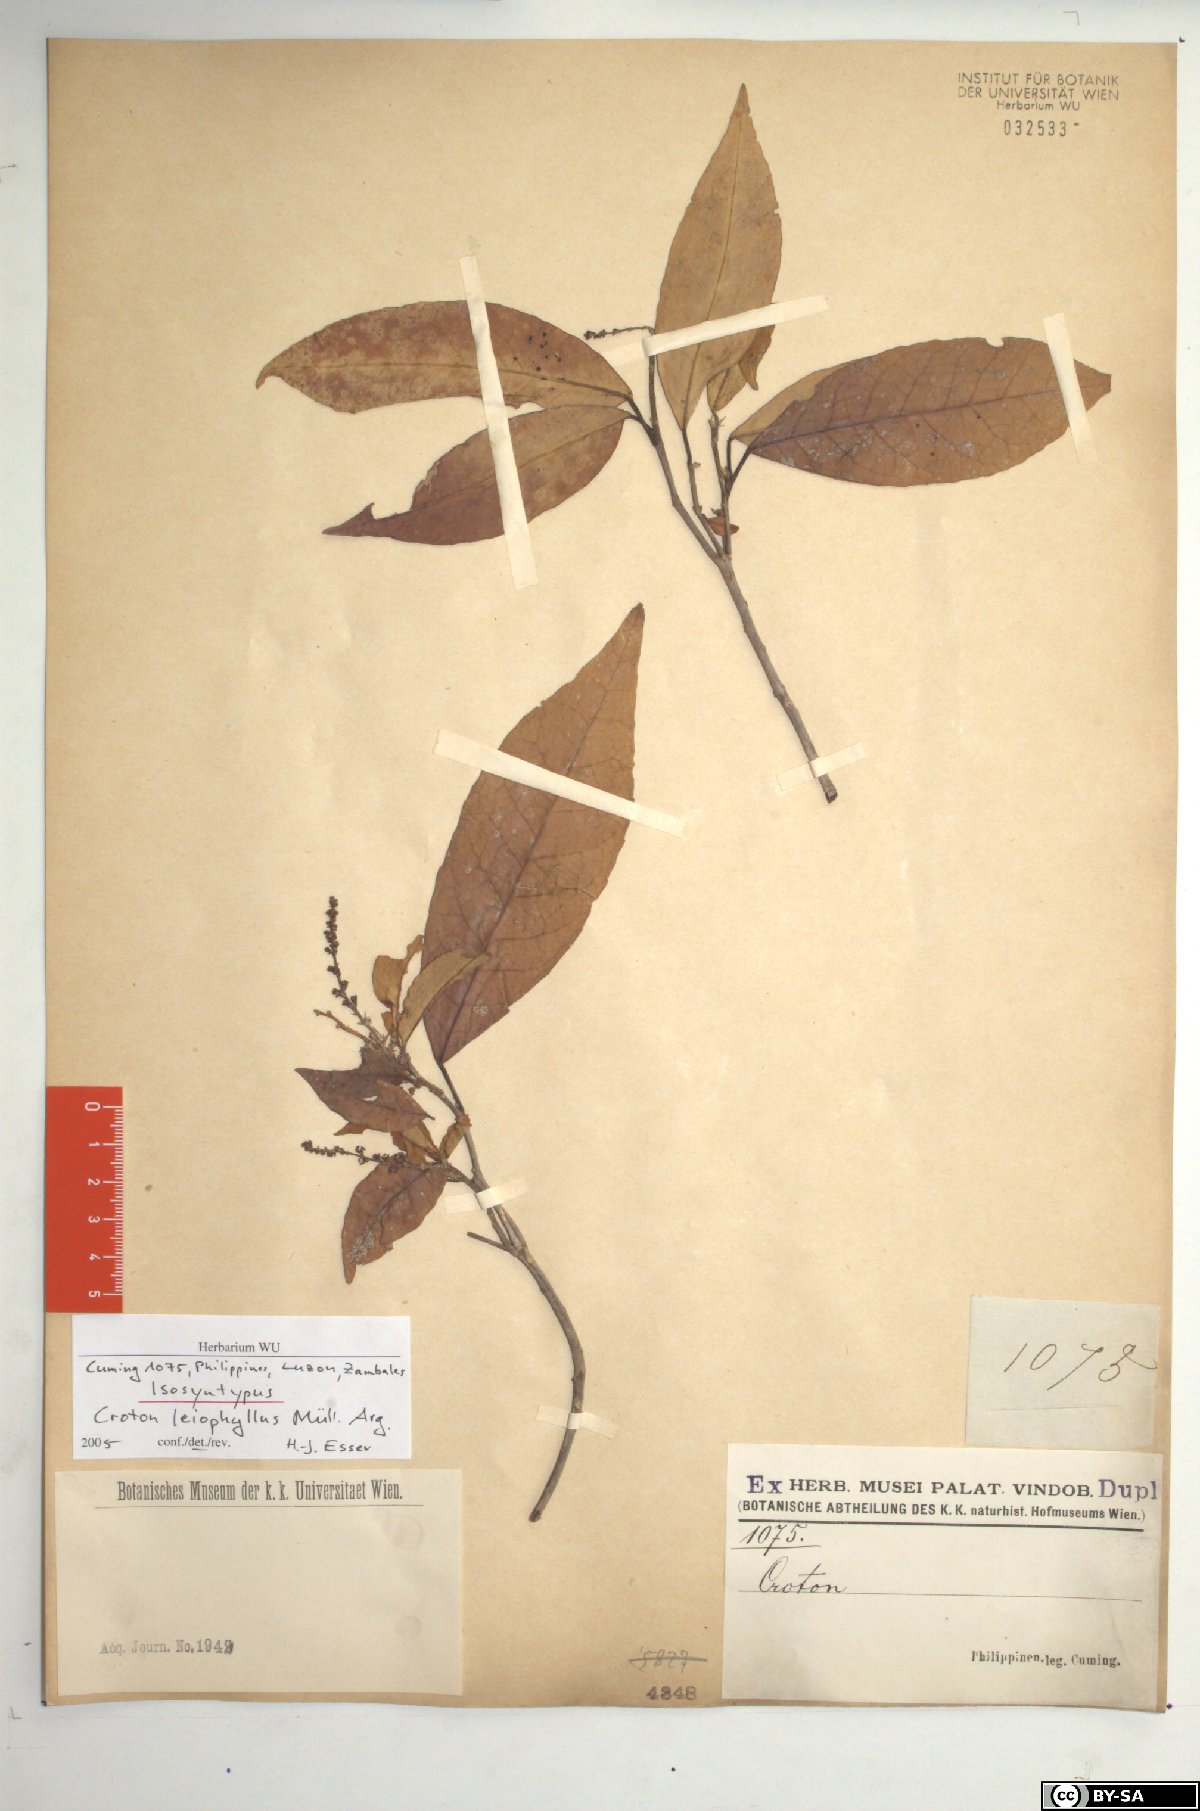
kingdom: Plantae
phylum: Tracheophyta
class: Magnoliopsida
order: Malpighiales
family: Euphorbiaceae
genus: Croton
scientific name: Croton leiophyllus
